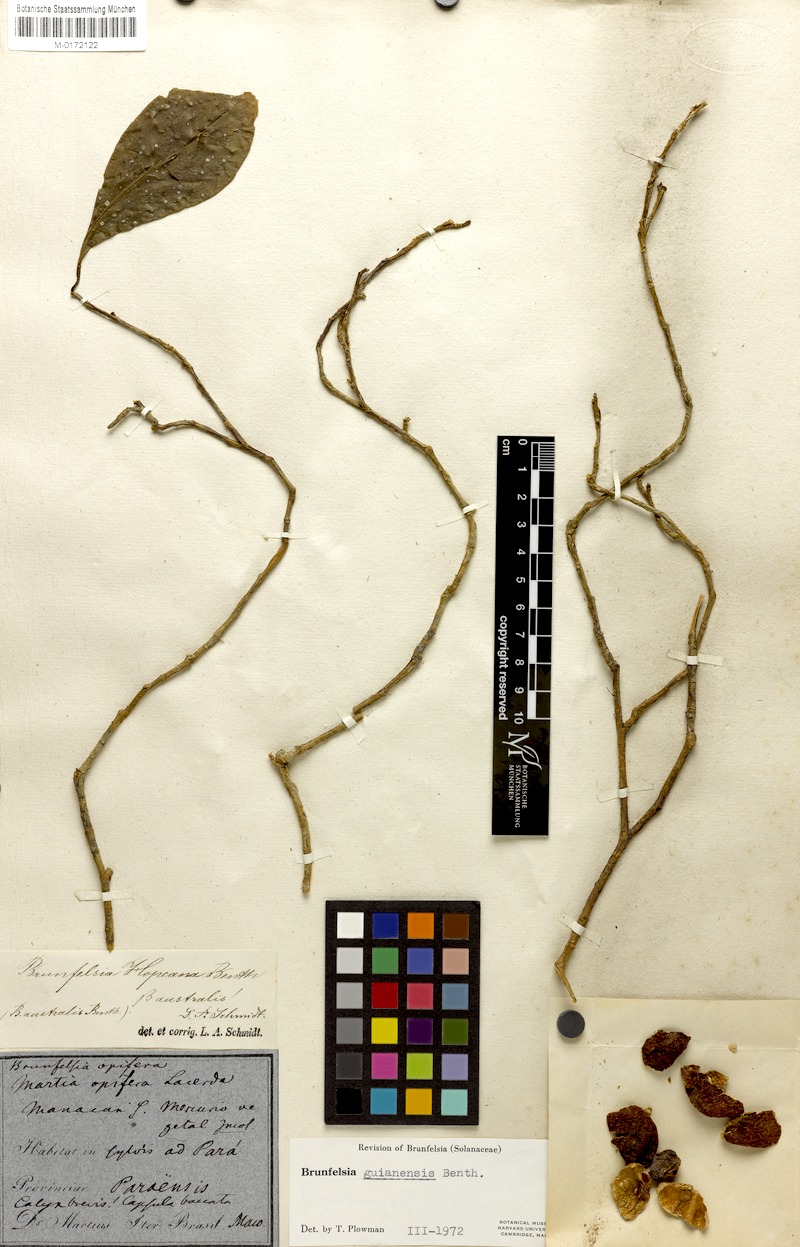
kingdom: Plantae
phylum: Tracheophyta
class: Magnoliopsida
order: Solanales
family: Solanaceae
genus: Brunfelsia
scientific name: Brunfelsia guianensis
